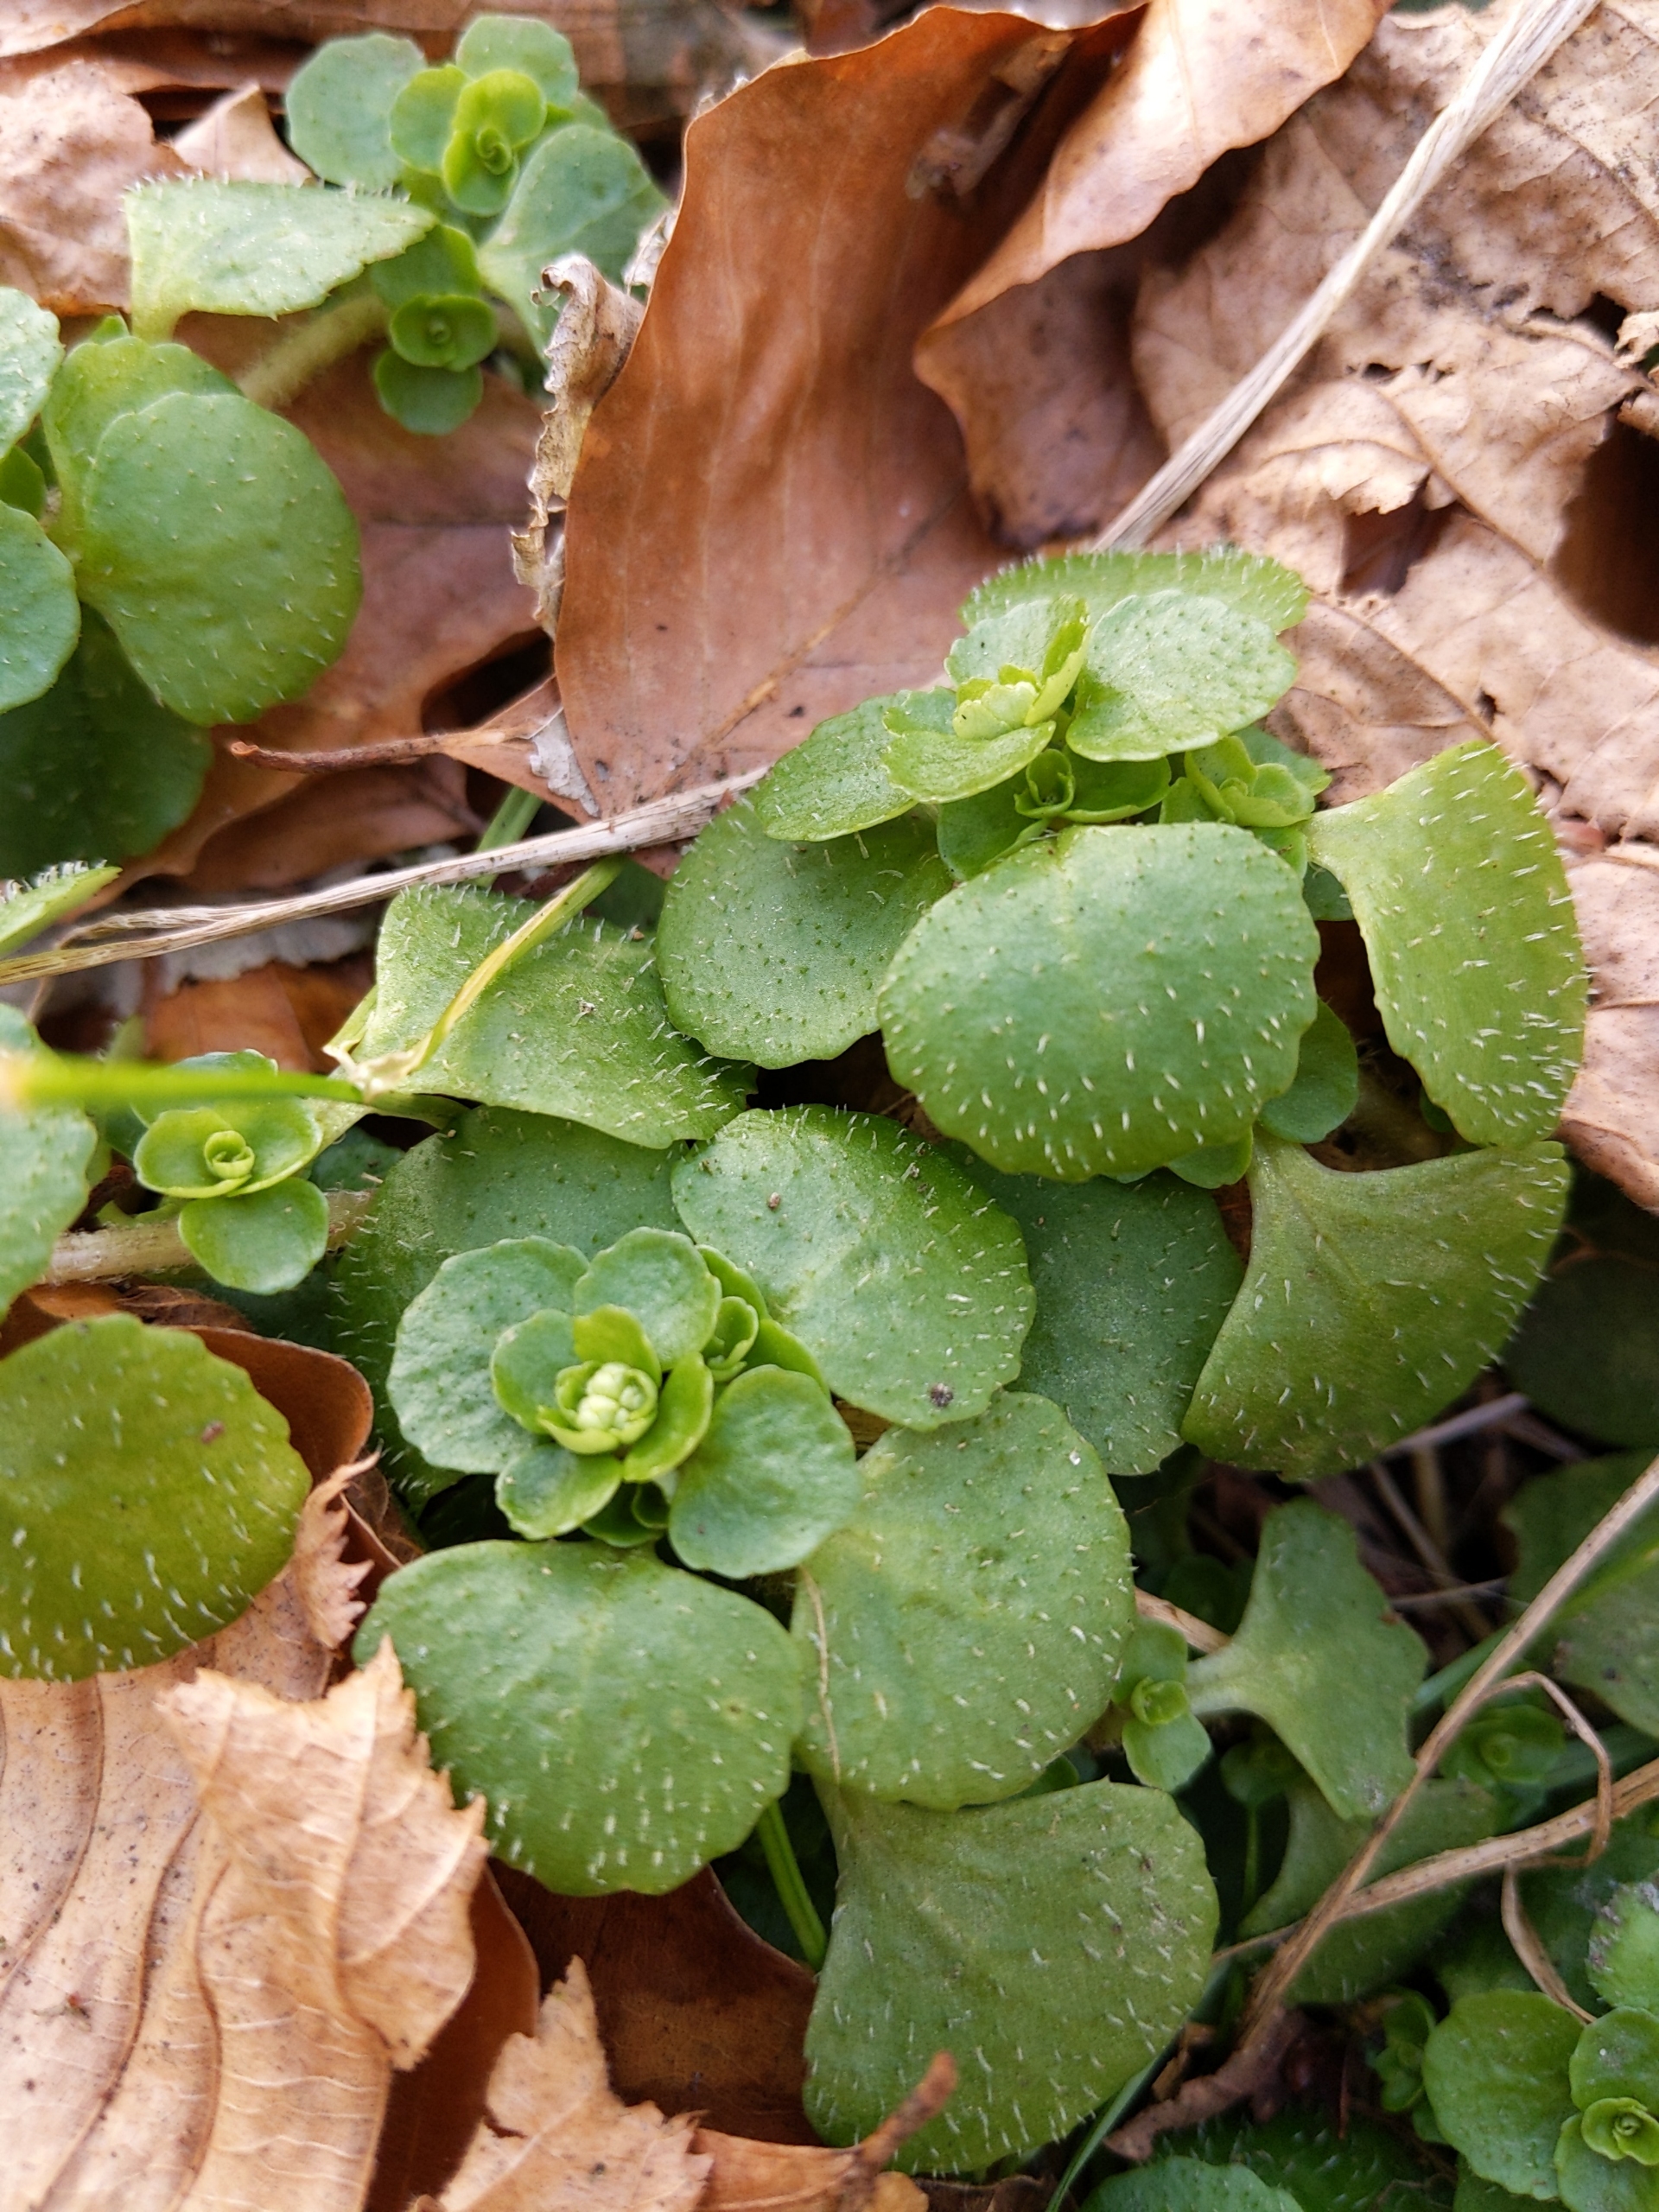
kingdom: Plantae
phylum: Tracheophyta
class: Magnoliopsida
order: Saxifragales
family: Saxifragaceae
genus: Chrysosplenium
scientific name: Chrysosplenium oppositifolium
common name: Småbladet milturt
